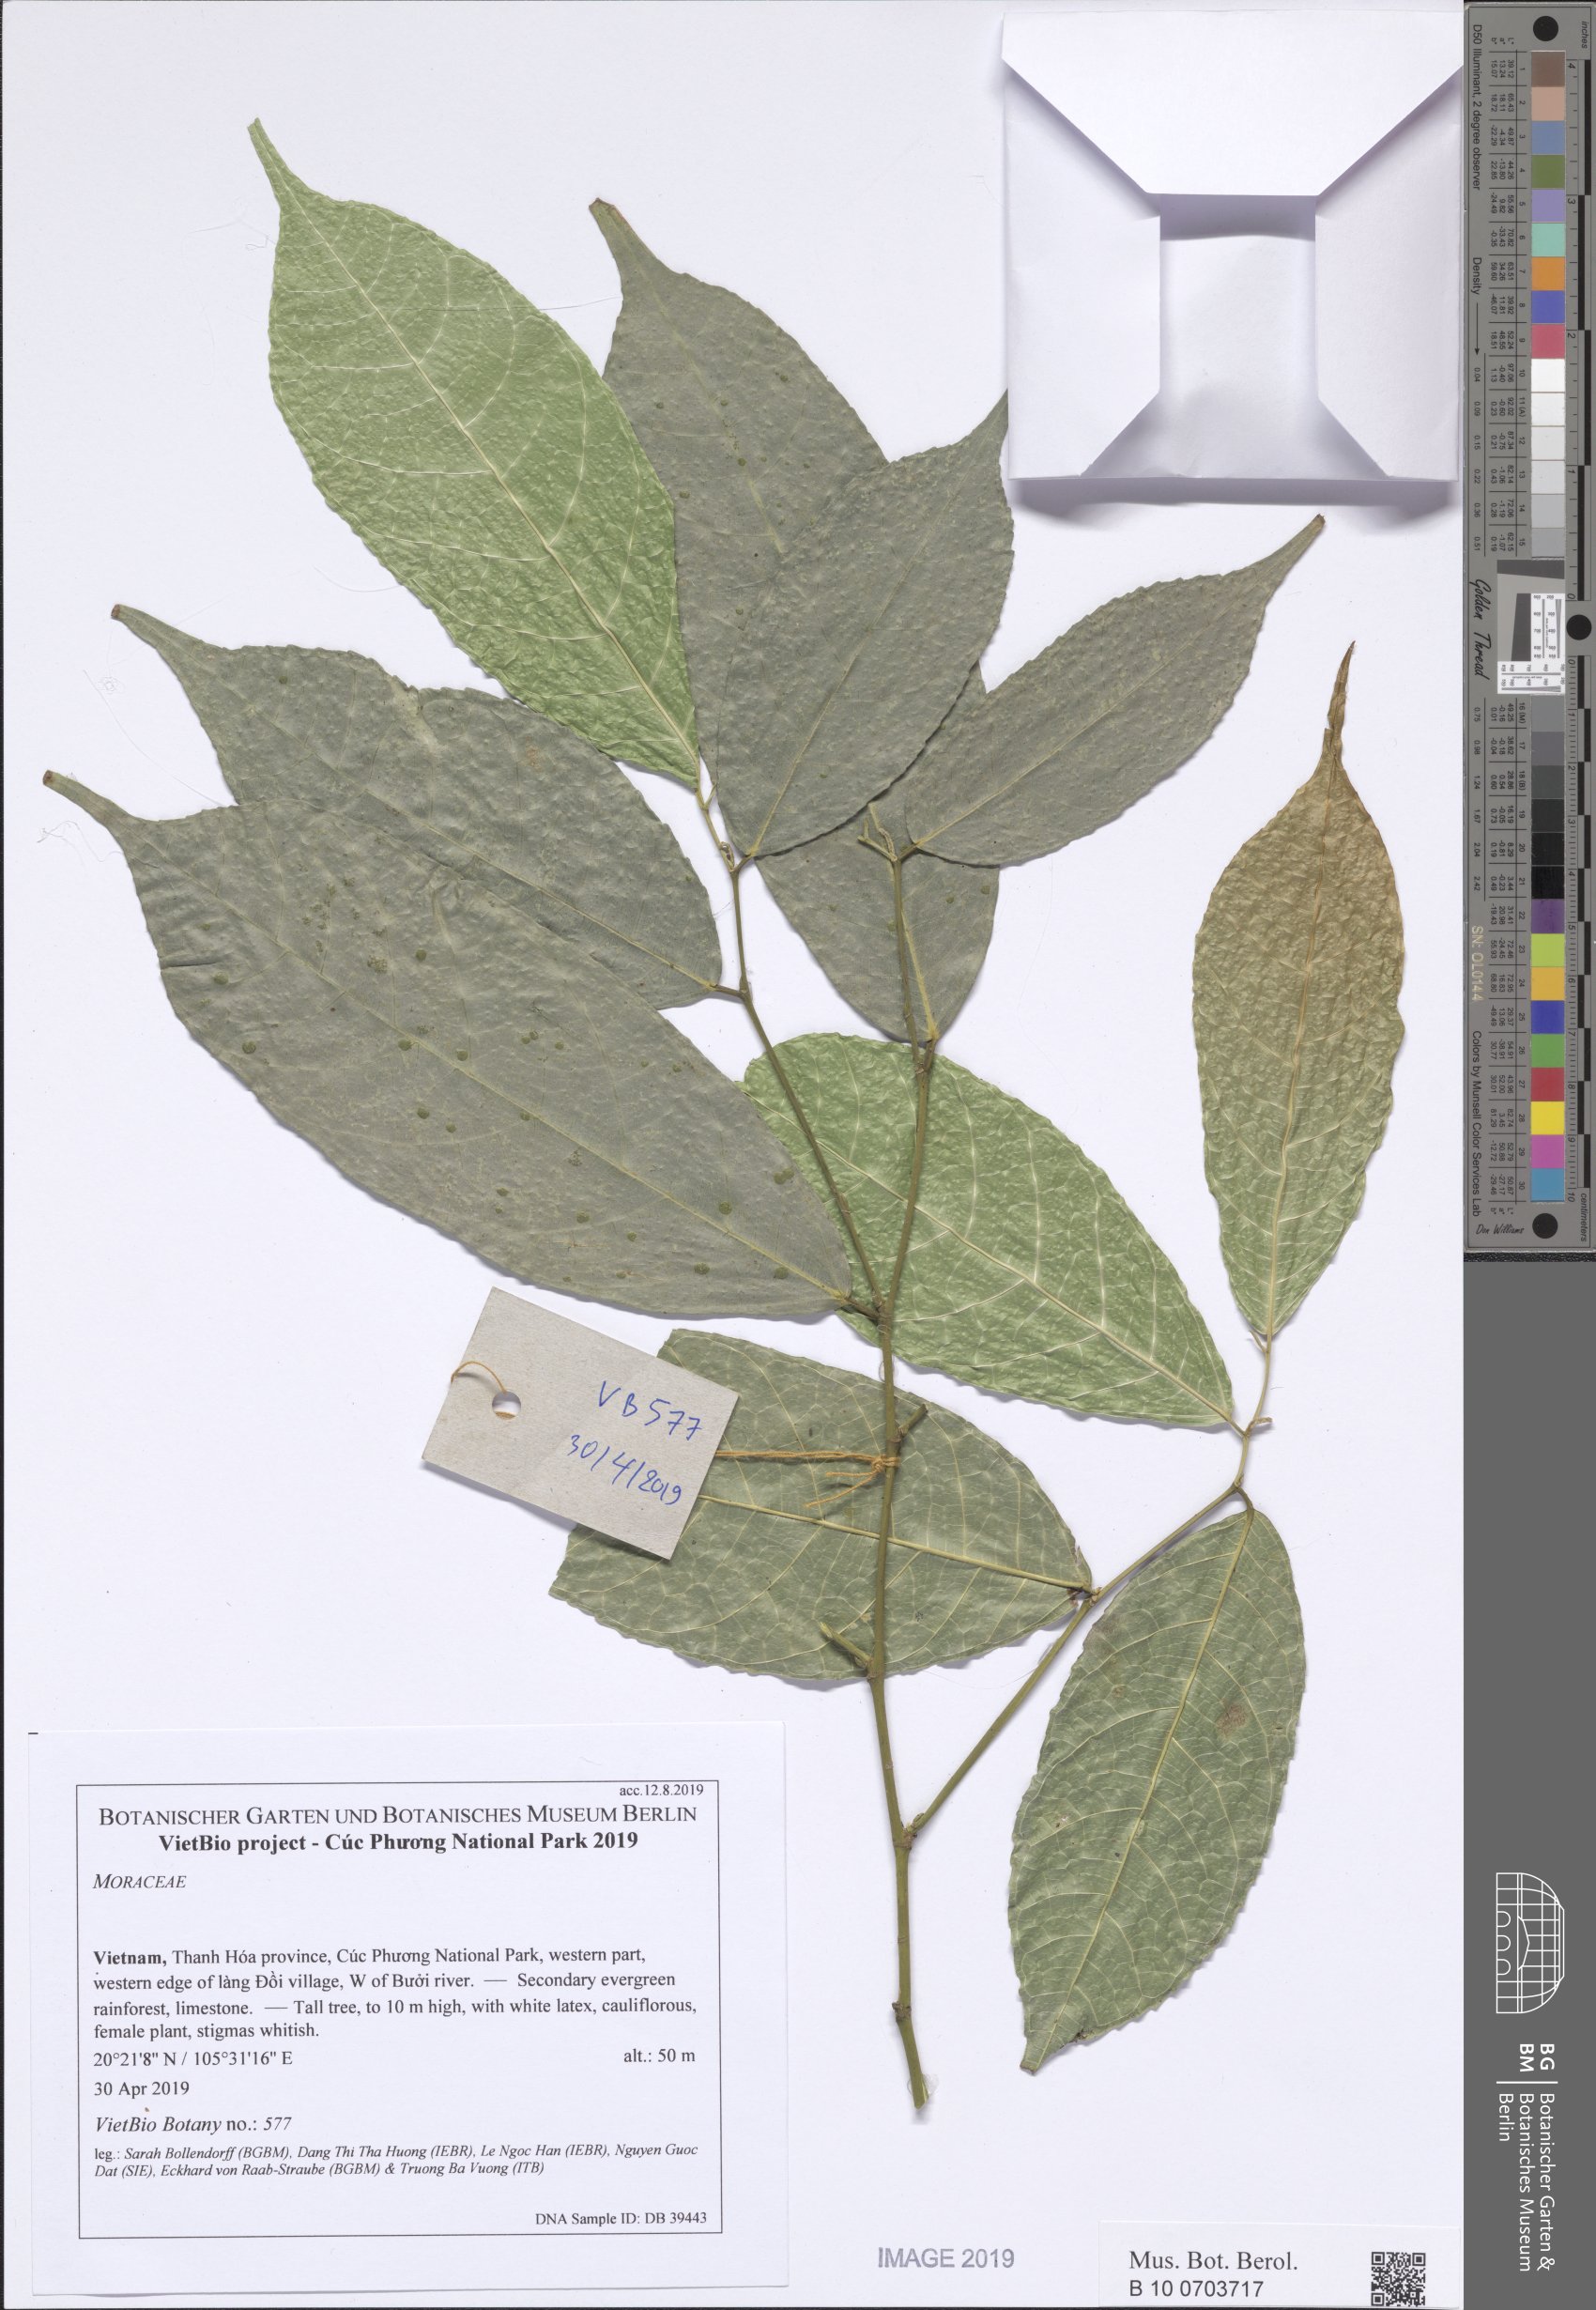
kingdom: Plantae
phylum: Tracheophyta
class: Magnoliopsida
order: Rosales
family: Moraceae
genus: Taxotrophis
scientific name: Taxotrophis macrophylla
